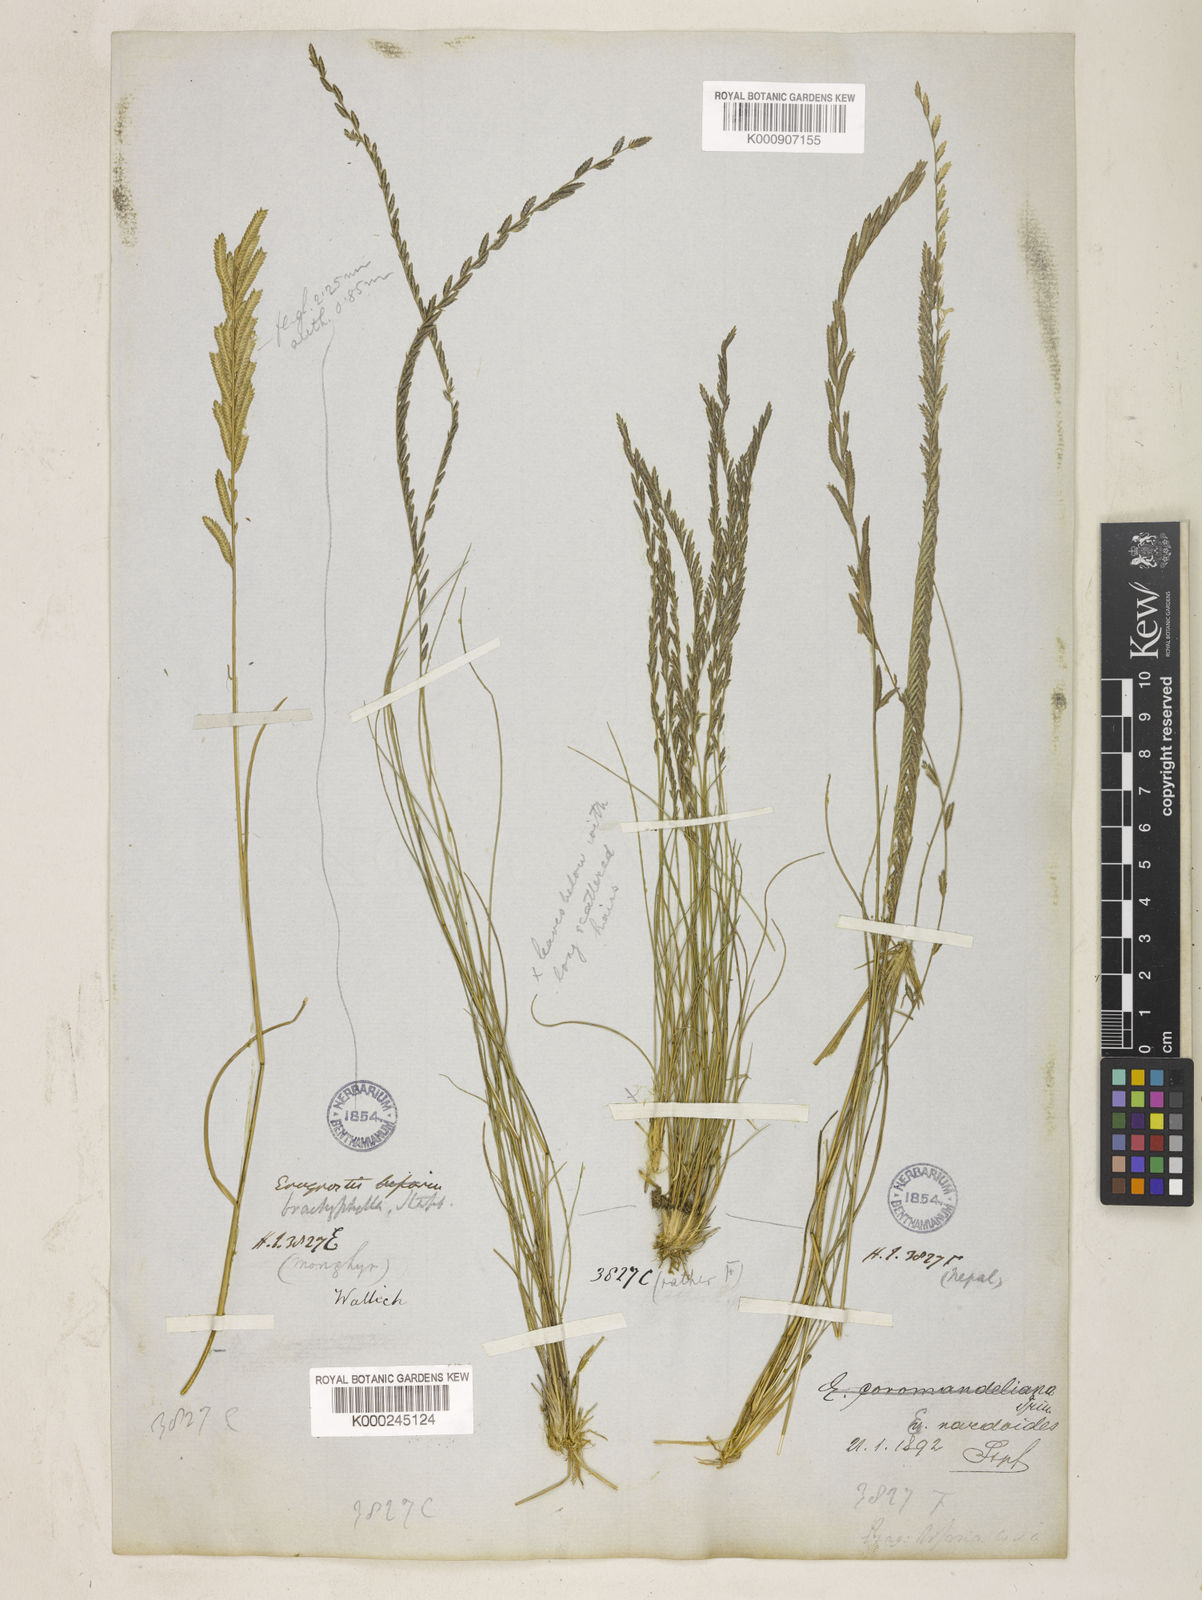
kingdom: Plantae
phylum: Tracheophyta
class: Liliopsida
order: Poales
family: Poaceae
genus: Eragrostiella
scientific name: Eragrostiella nardoides
